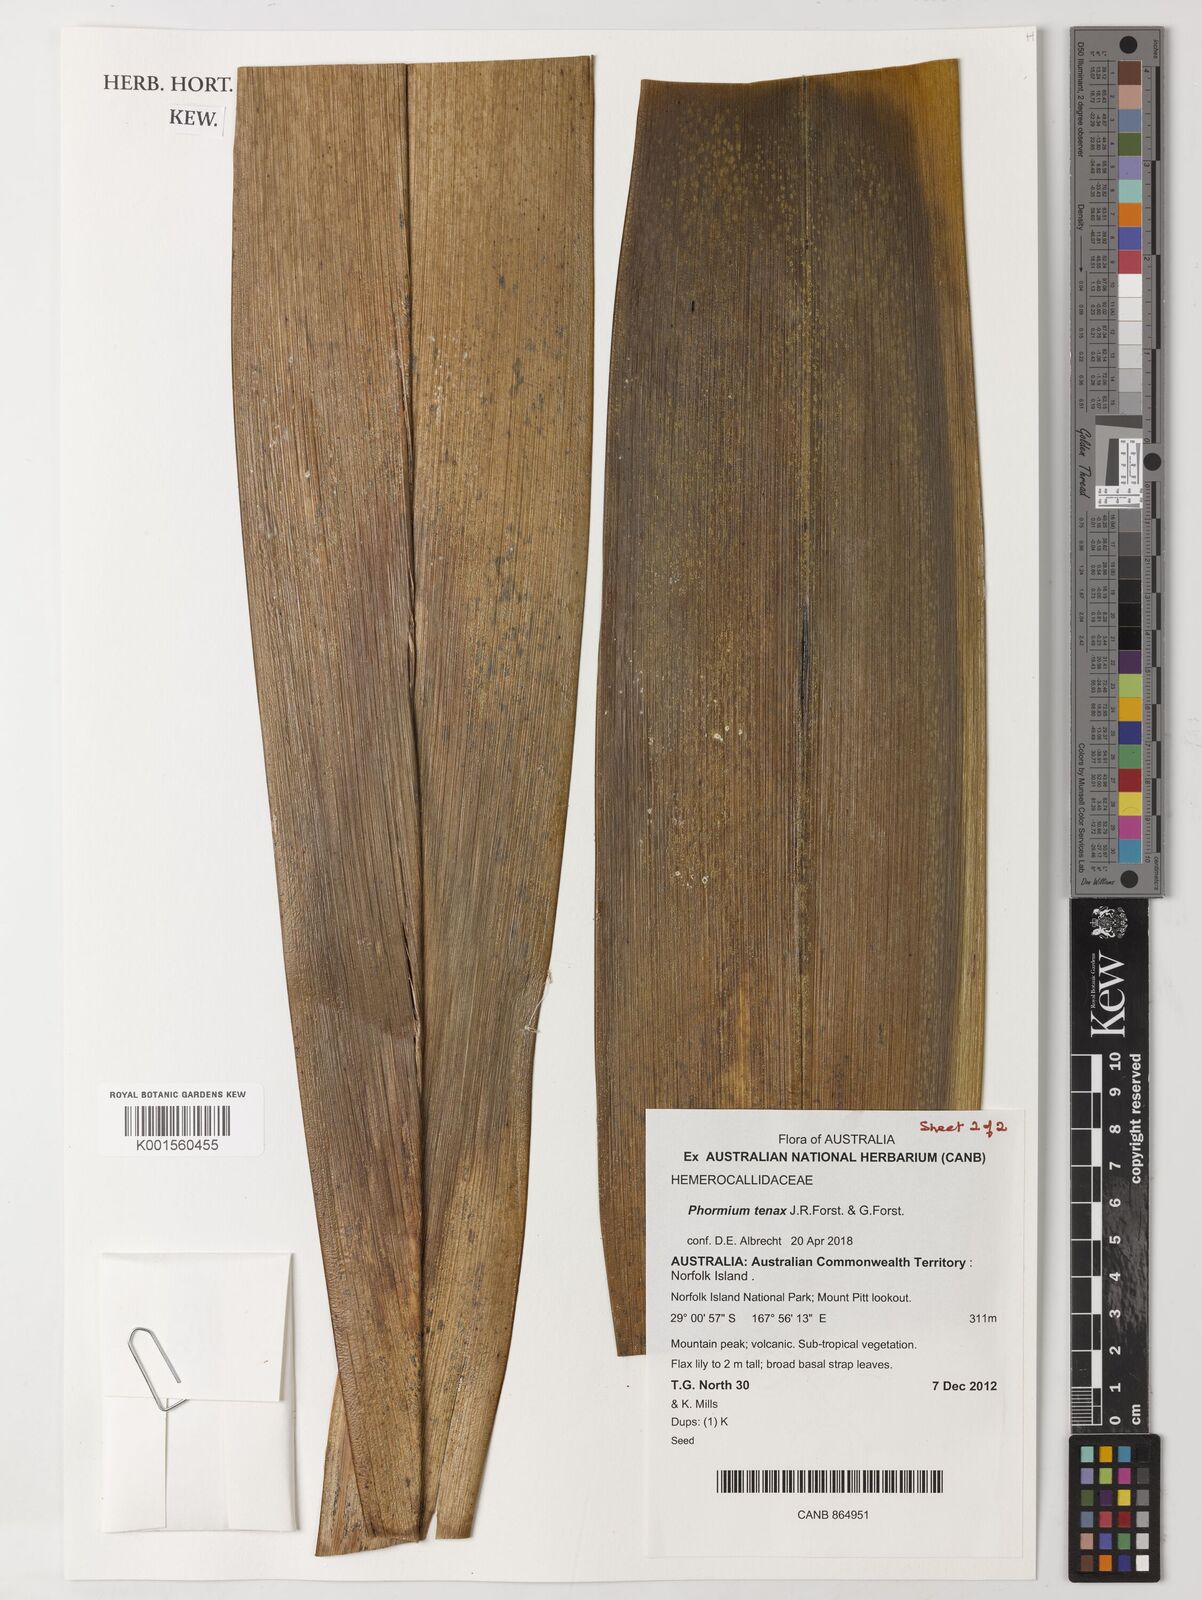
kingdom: Plantae
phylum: Tracheophyta
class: Liliopsida
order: Asparagales
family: Asphodelaceae
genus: Phormium
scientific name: Phormium tenax
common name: New zealand flax
